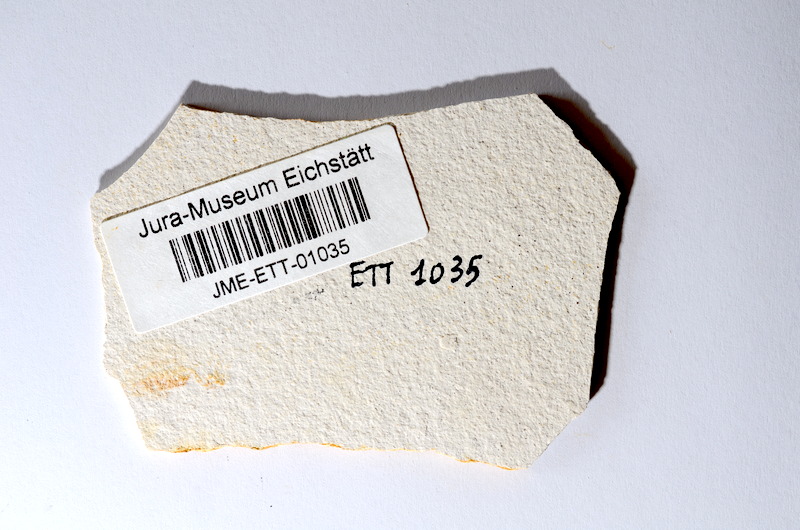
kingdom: Animalia
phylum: Chordata
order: Salmoniformes
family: Orthogonikleithridae
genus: Orthogonikleithrus
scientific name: Orthogonikleithrus hoelli
